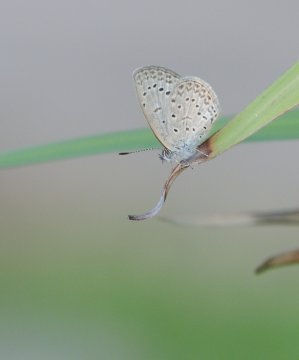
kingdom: Animalia
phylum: Arthropoda
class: Insecta
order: Lepidoptera
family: Lycaenidae
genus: Zizeeria
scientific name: Zizeeria knysna
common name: Dark Grass Blue
